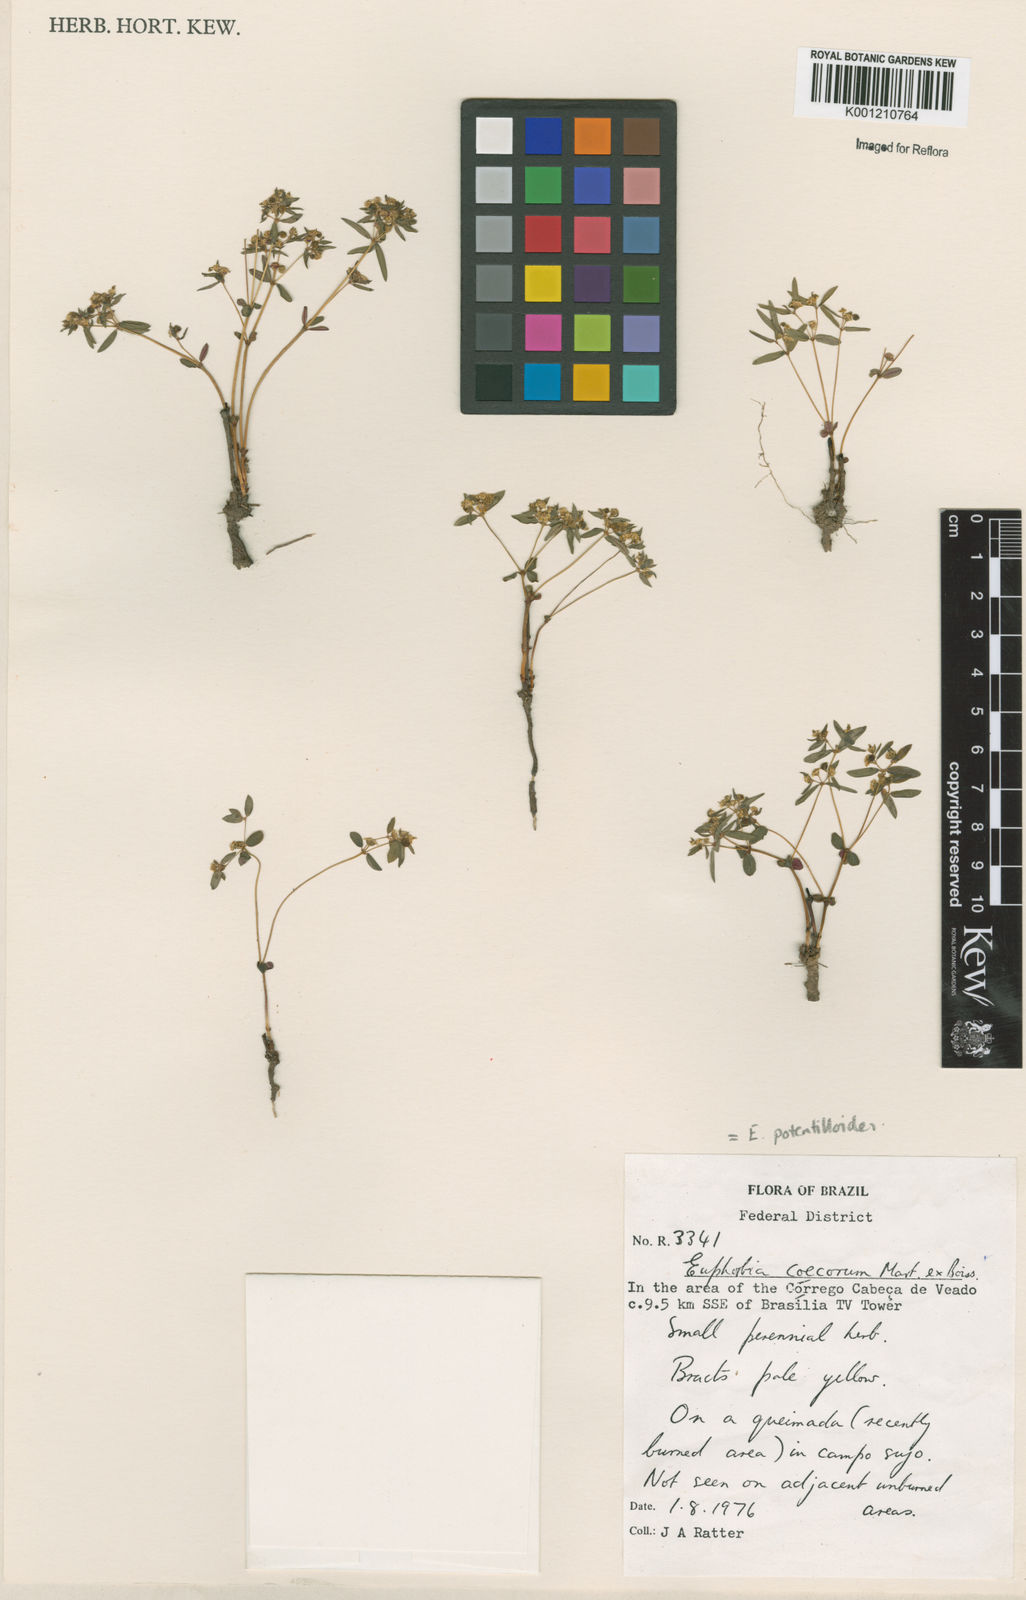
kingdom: Plantae
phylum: Tracheophyta
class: Magnoliopsida
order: Malpighiales
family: Euphorbiaceae
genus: Euphorbia
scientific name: Euphorbia potentilloides
